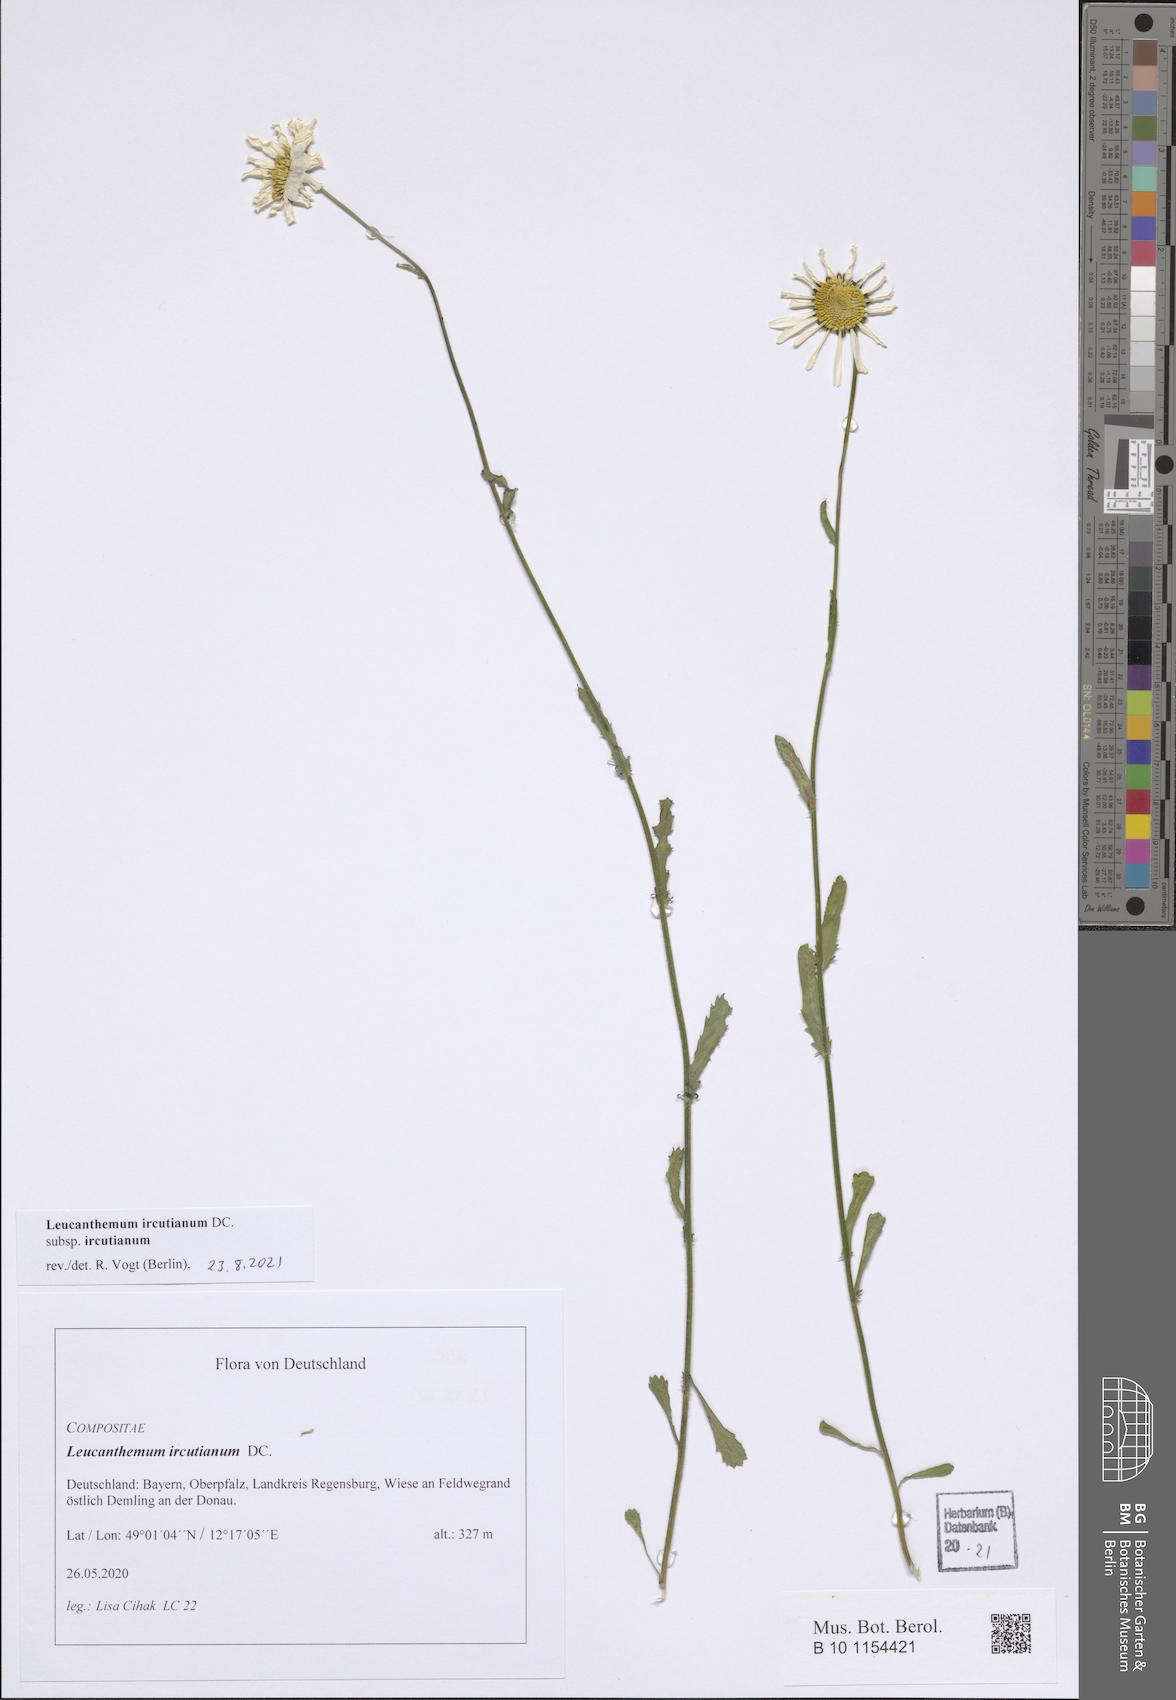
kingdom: Plantae
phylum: Tracheophyta
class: Magnoliopsida
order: Asterales
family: Asteraceae
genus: Leucanthemum
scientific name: Leucanthemum ircutianum
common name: Daisy
